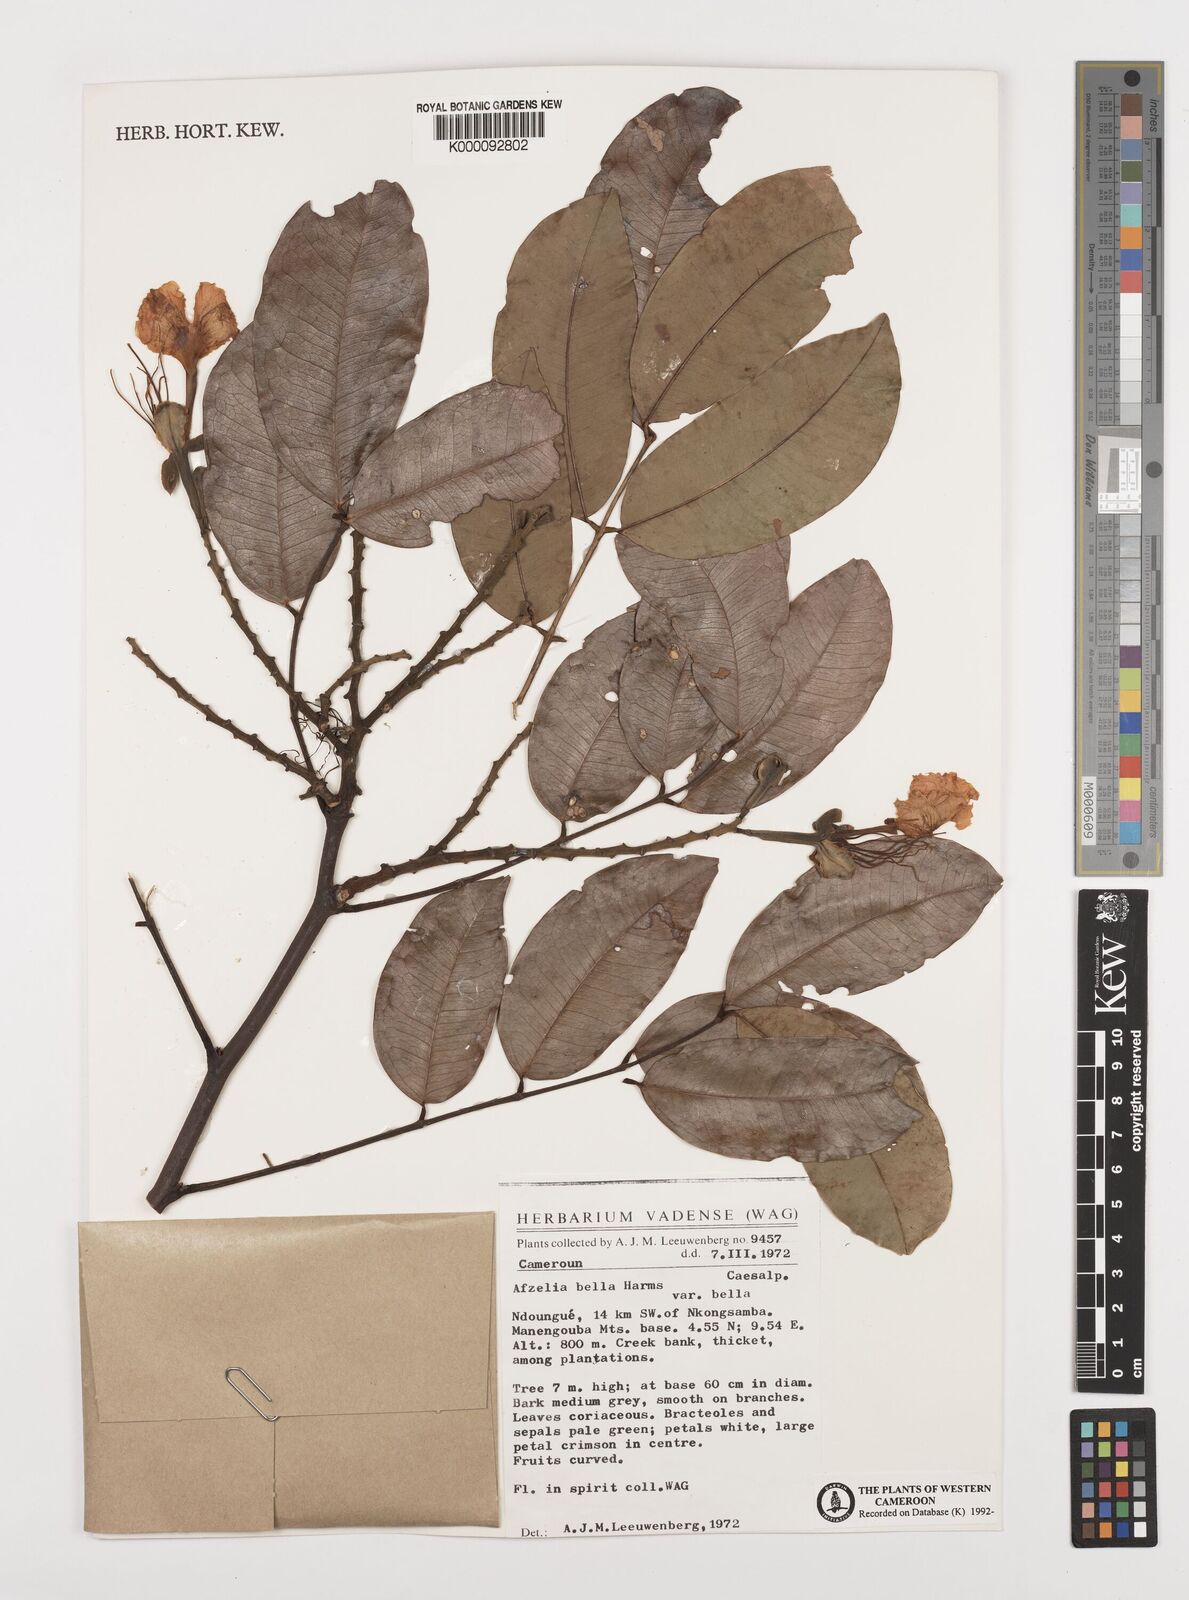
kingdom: Plantae
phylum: Tracheophyta
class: Magnoliopsida
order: Fabales
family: Fabaceae
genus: Afzelia
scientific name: Afzelia bella
